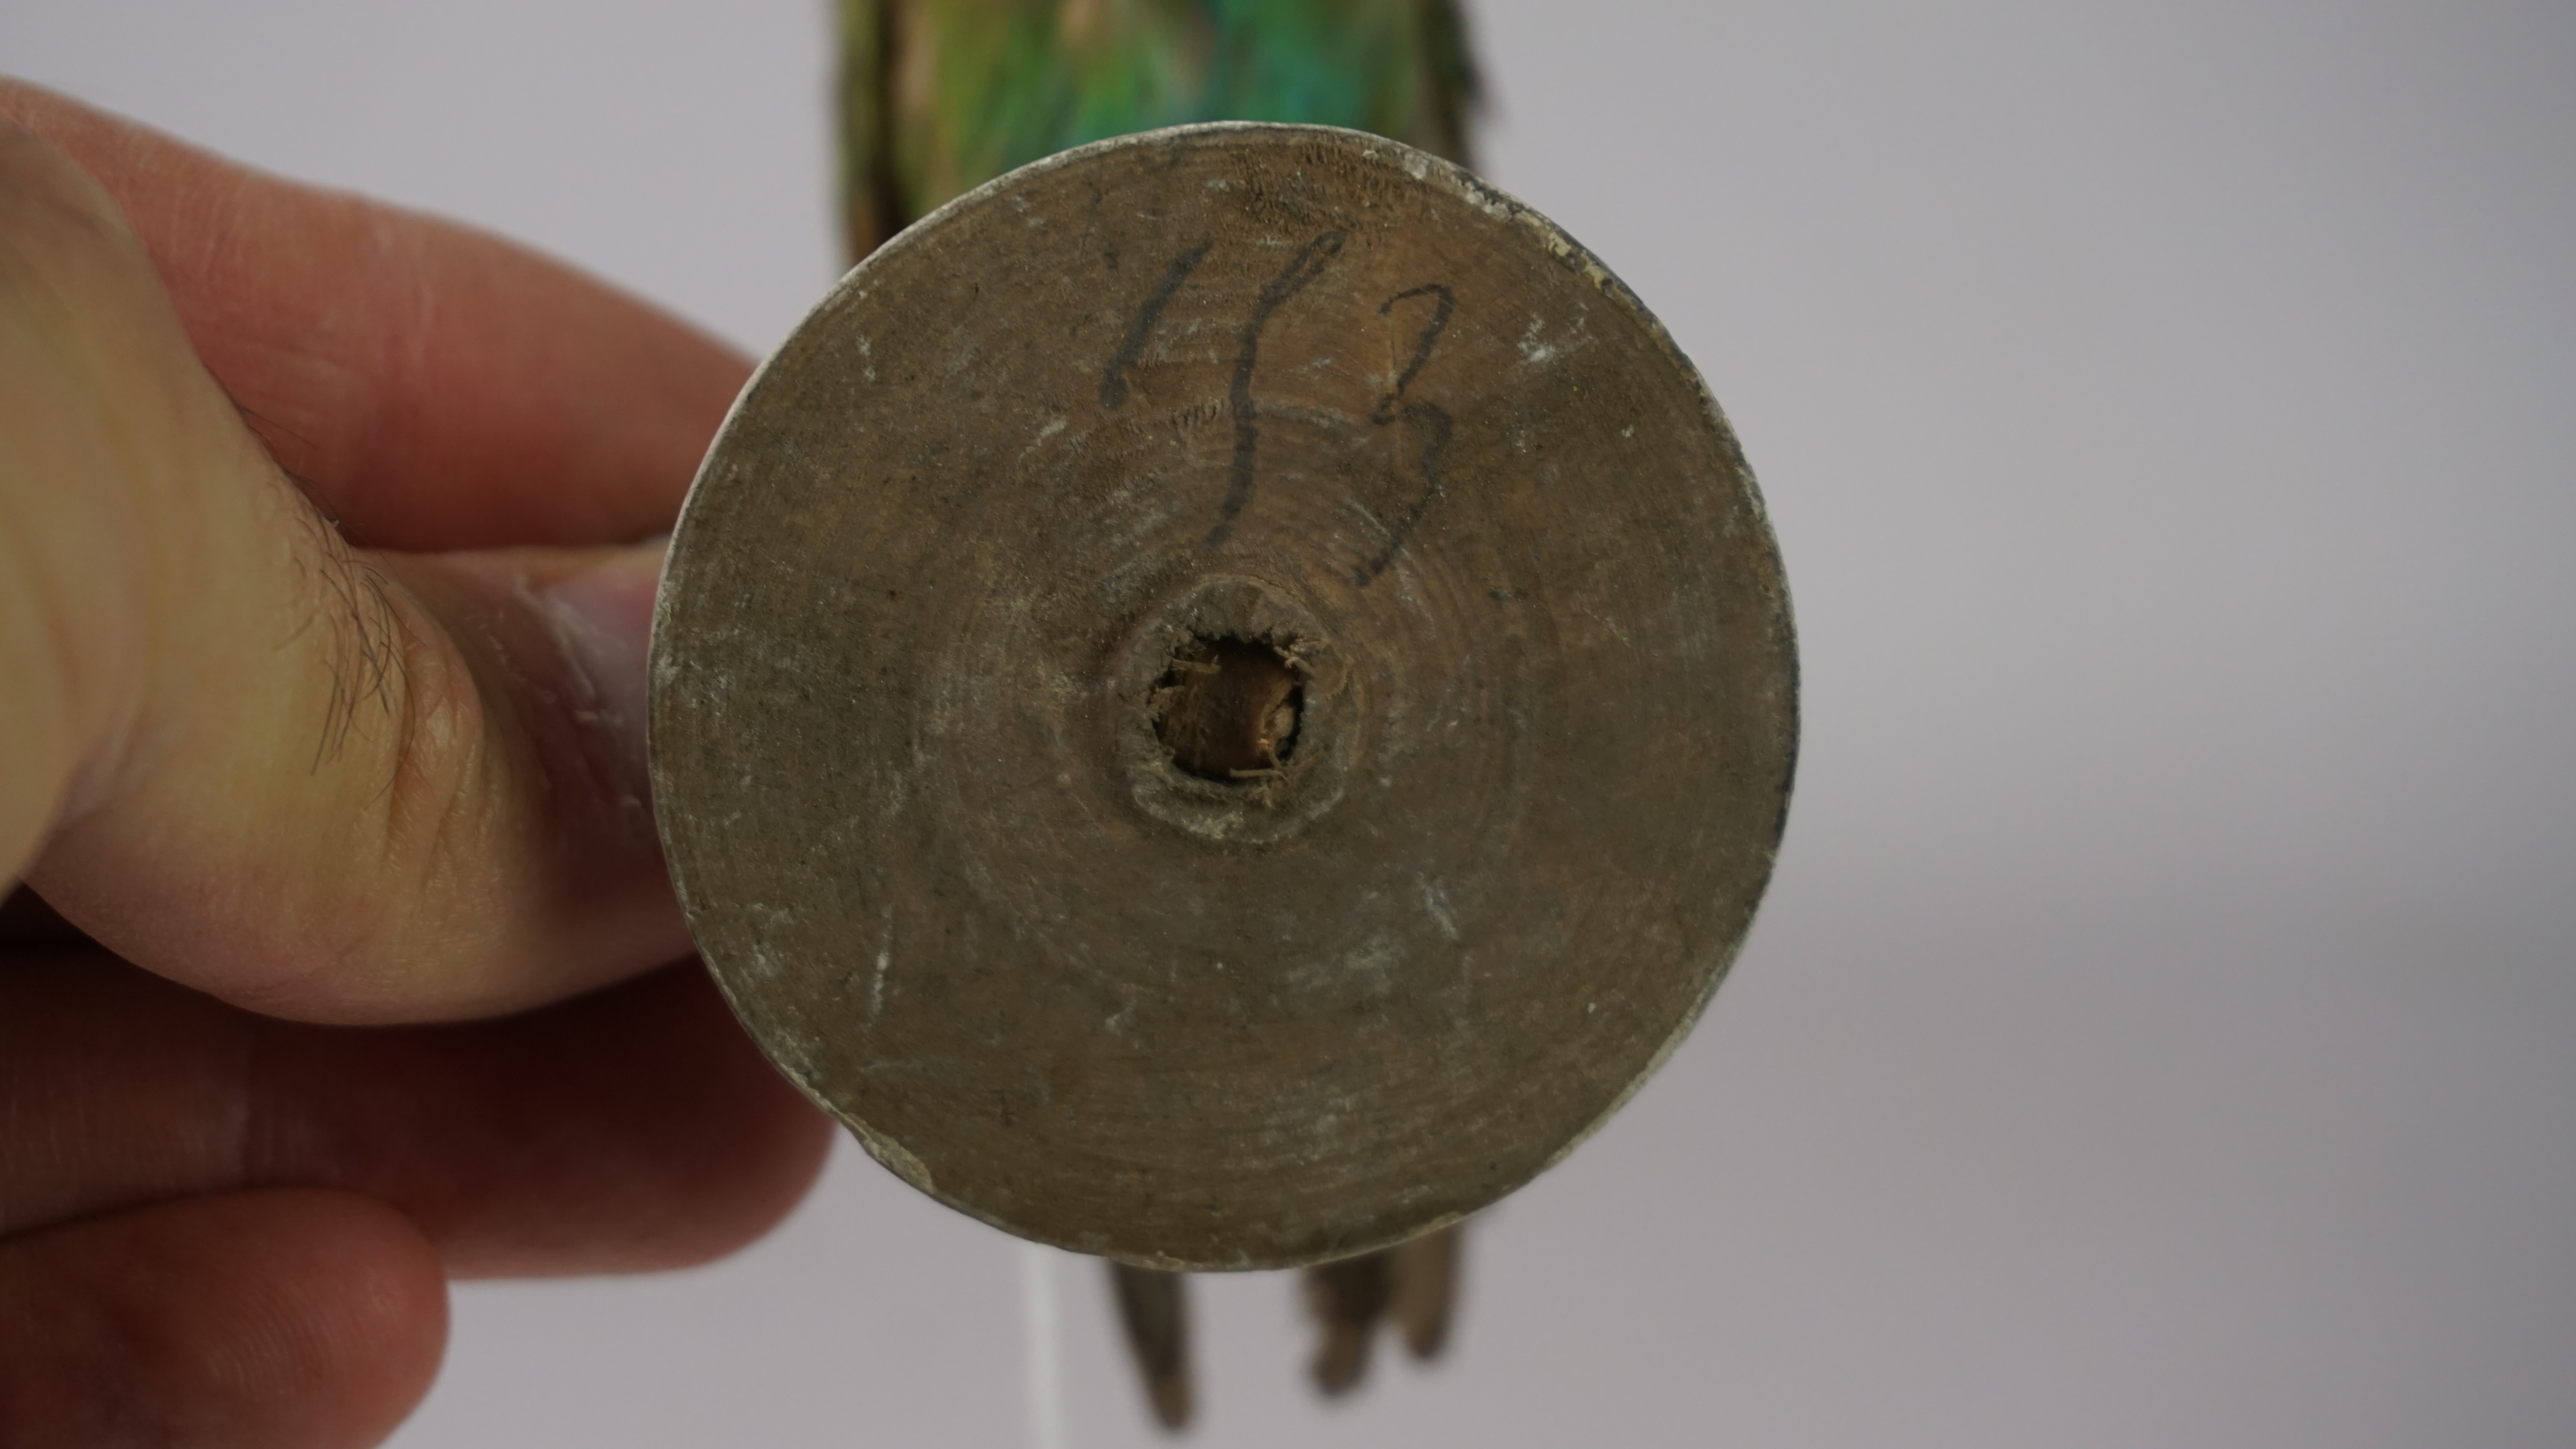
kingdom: Animalia
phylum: Chordata
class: Aves
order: Coraciiformes
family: Meropidae
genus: Merops
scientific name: Merops hirundineus
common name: Swallow-tailed bee-eater
